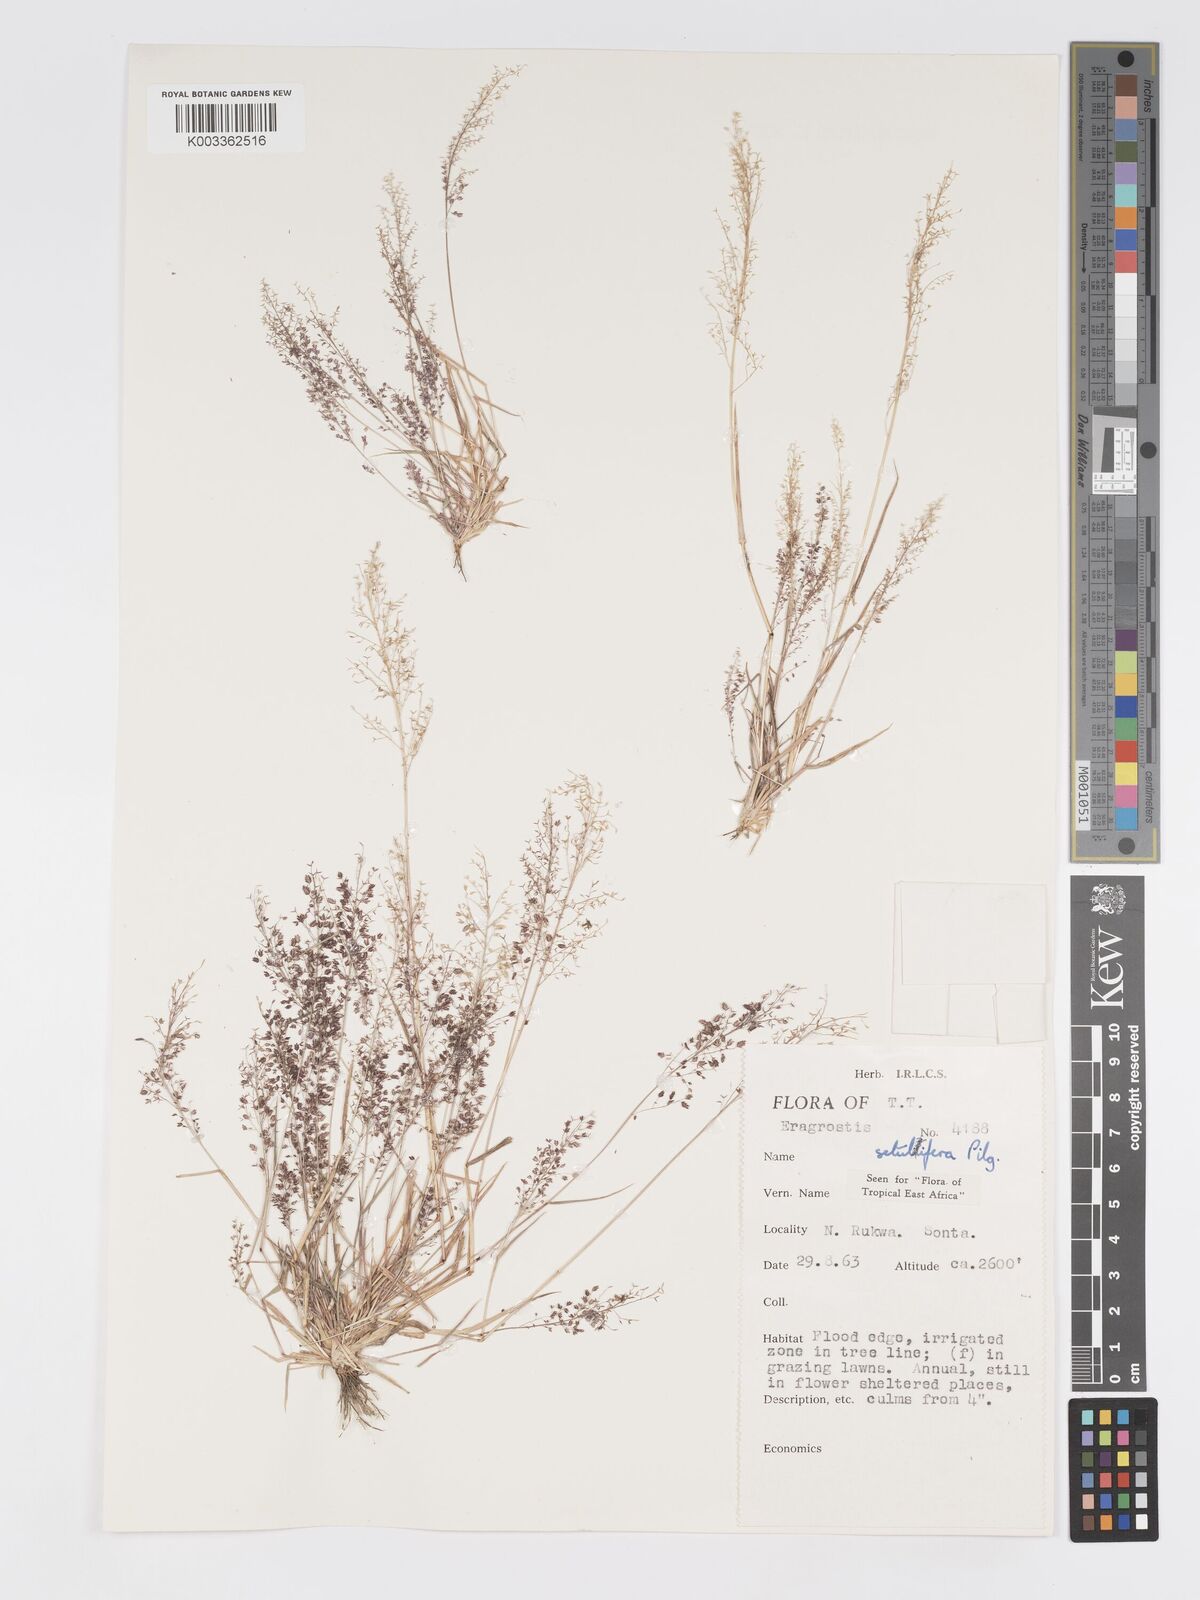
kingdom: Plantae
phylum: Tracheophyta
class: Liliopsida
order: Poales
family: Poaceae
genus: Eragrostis
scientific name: Eragrostis tenella
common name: Japanese lovegrass
